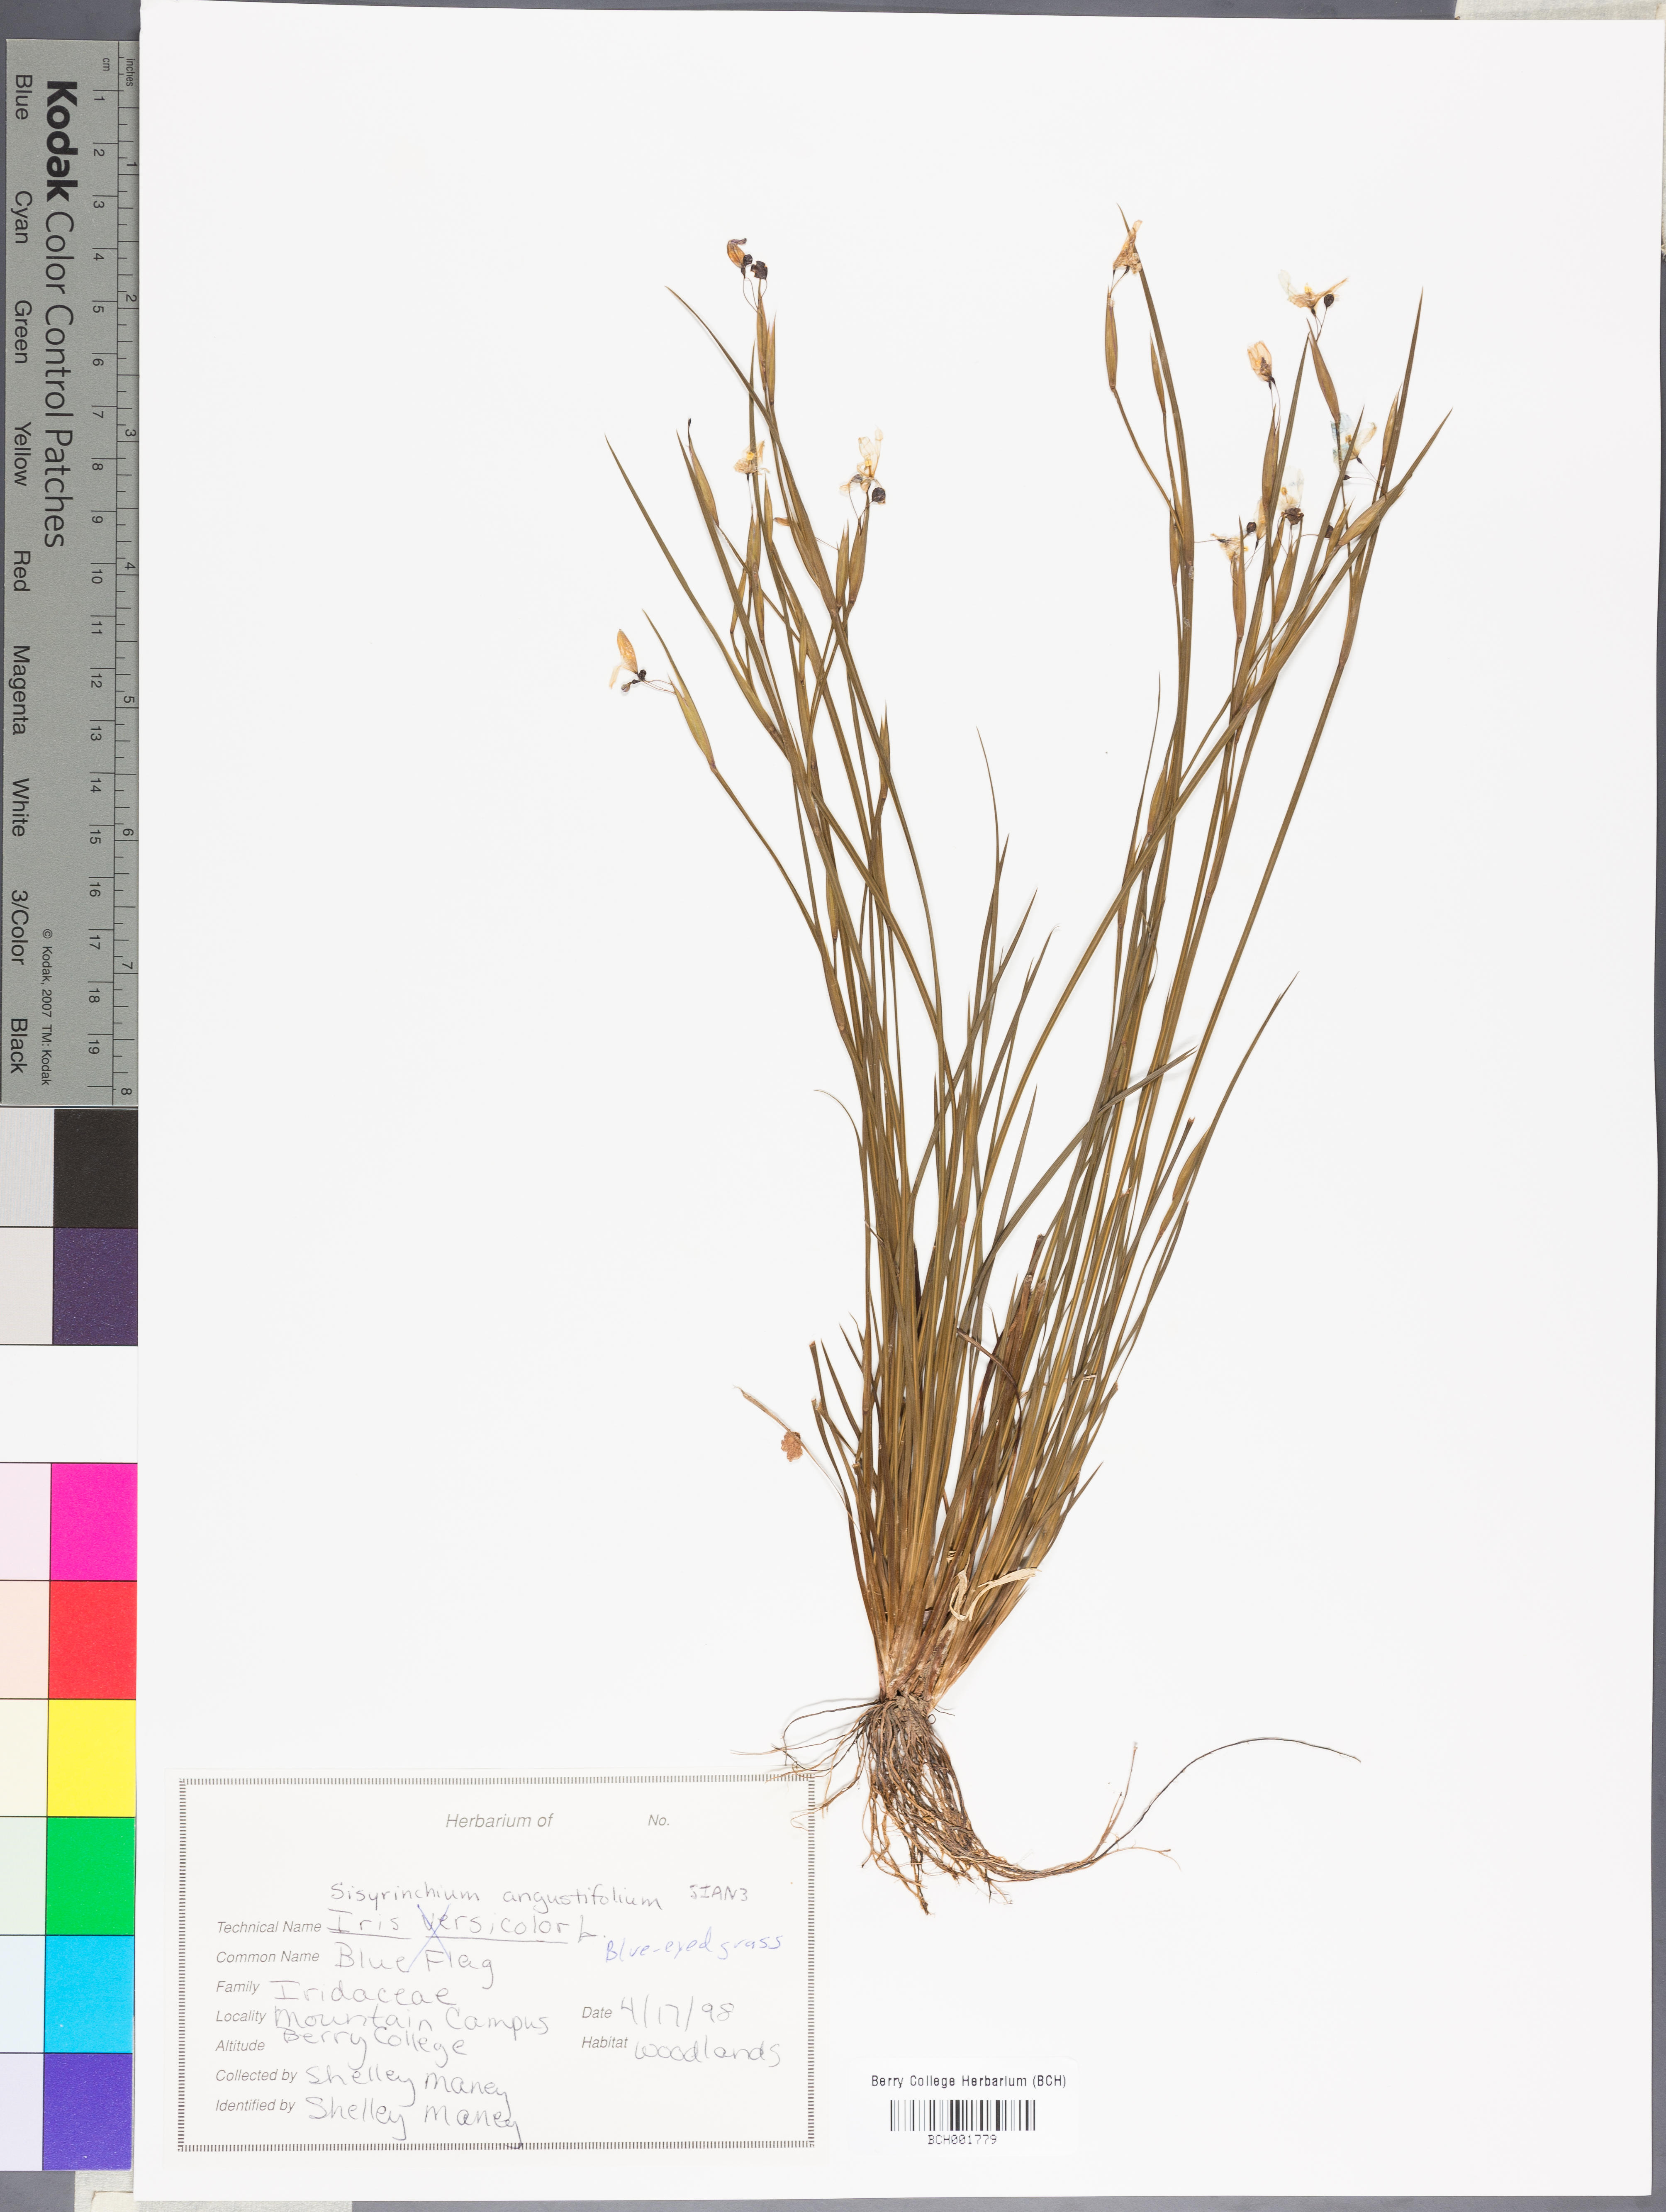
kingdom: Plantae
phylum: Tracheophyta
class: Liliopsida
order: Asparagales
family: Iridaceae
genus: Sisyrinchium
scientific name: Sisyrinchium angustifolium
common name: Narrow-leaf blue-eyed-grass
